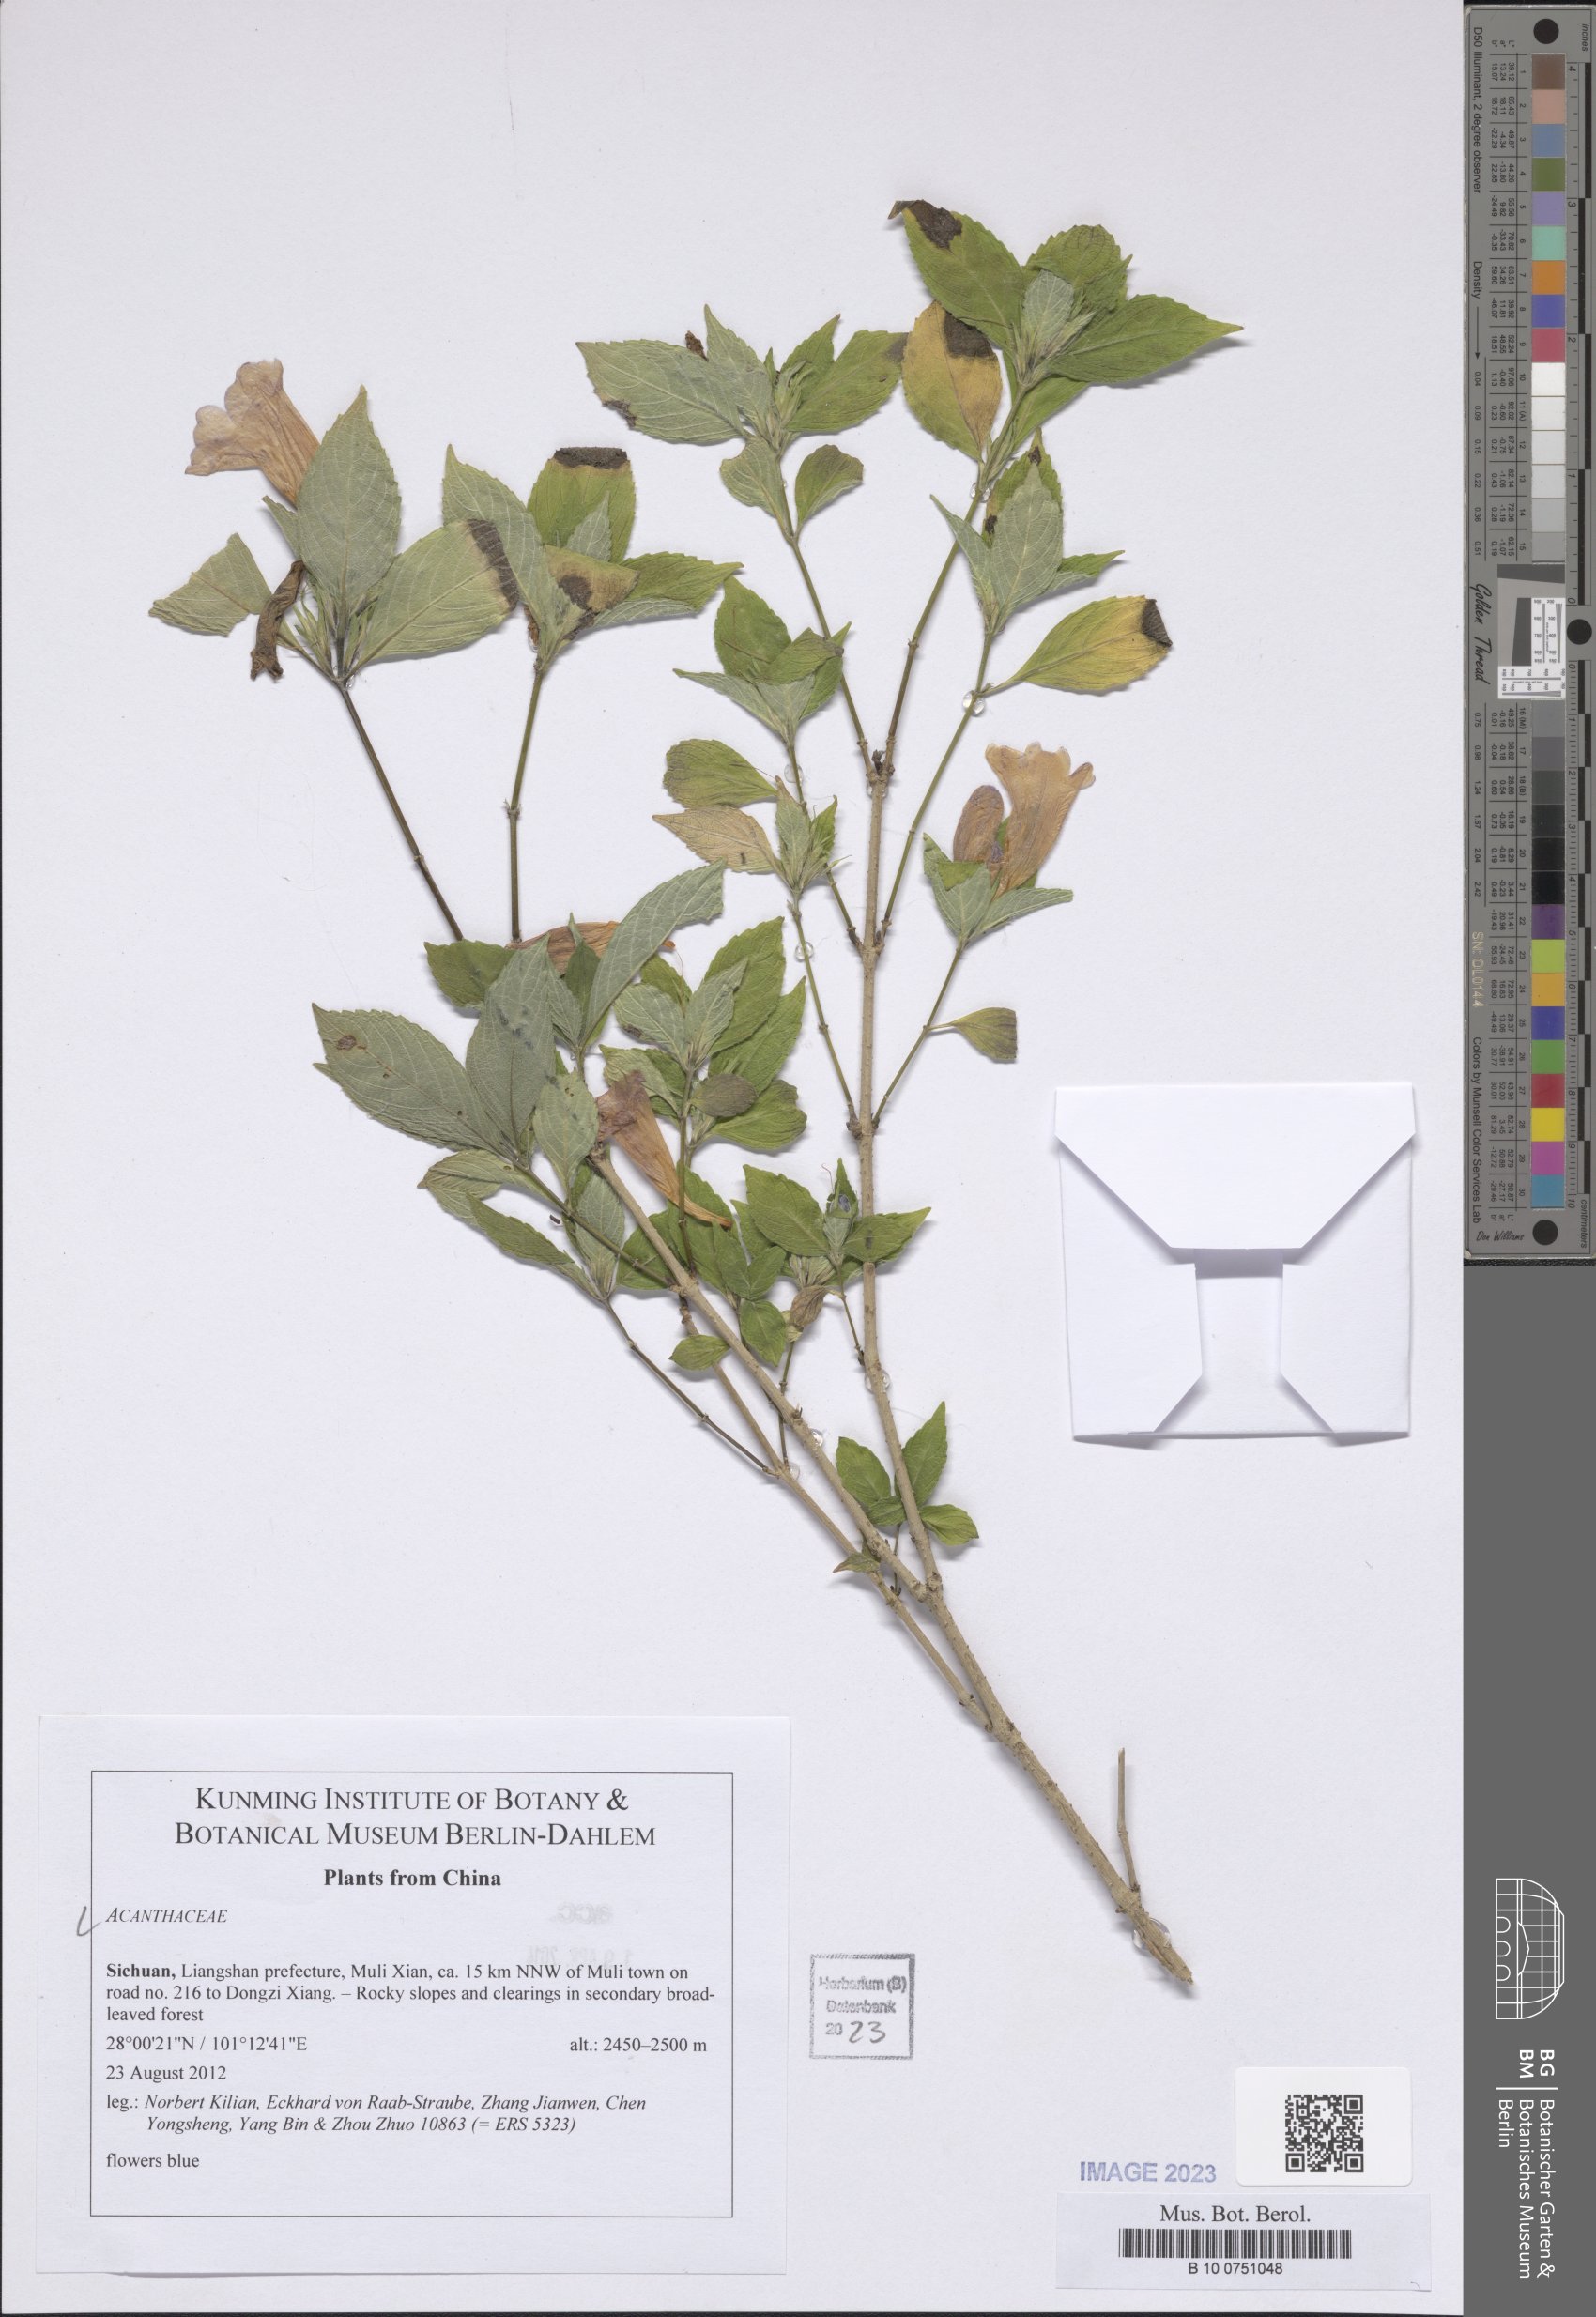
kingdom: Plantae
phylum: Tracheophyta
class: Magnoliopsida
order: Lamiales
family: Acanthaceae
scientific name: Acanthaceae
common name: Acanthaceae
